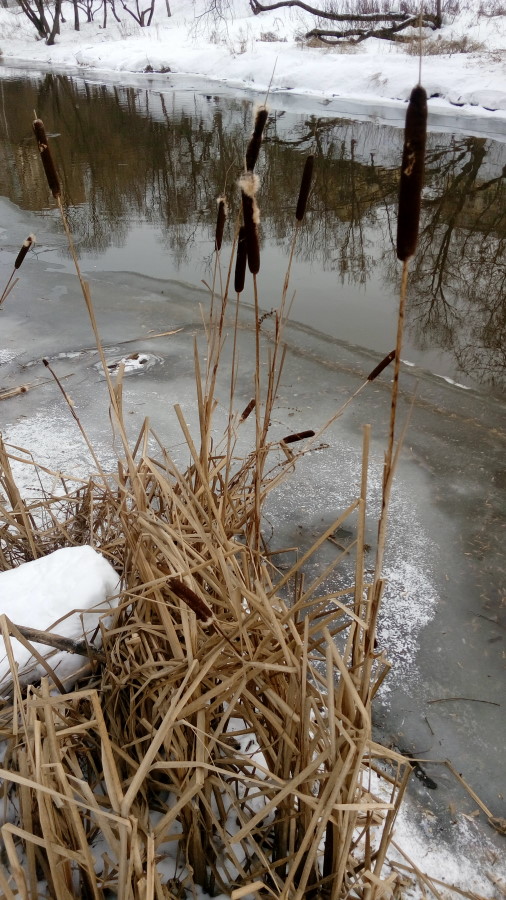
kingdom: Plantae
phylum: Tracheophyta
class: Liliopsida
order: Poales
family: Typhaceae
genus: Typha
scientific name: Typha latifolia
